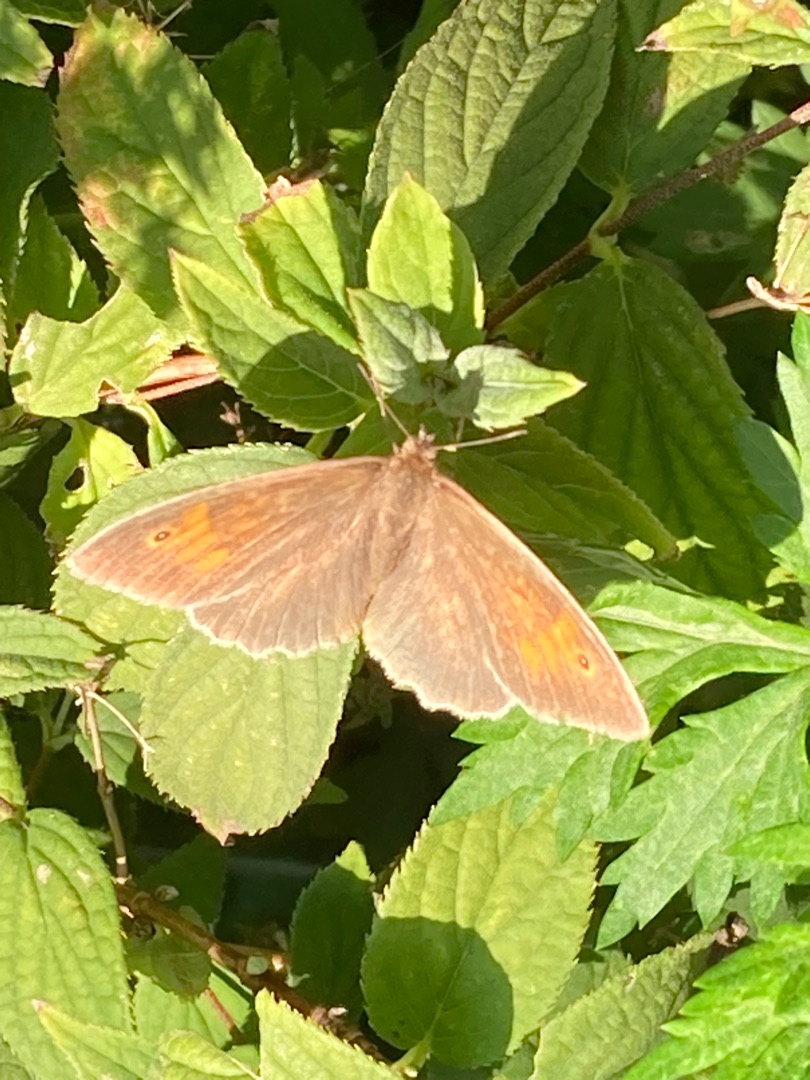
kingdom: Animalia
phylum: Arthropoda
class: Insecta
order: Lepidoptera
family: Nymphalidae
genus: Maniola
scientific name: Maniola jurtina
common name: Græsrandøje
